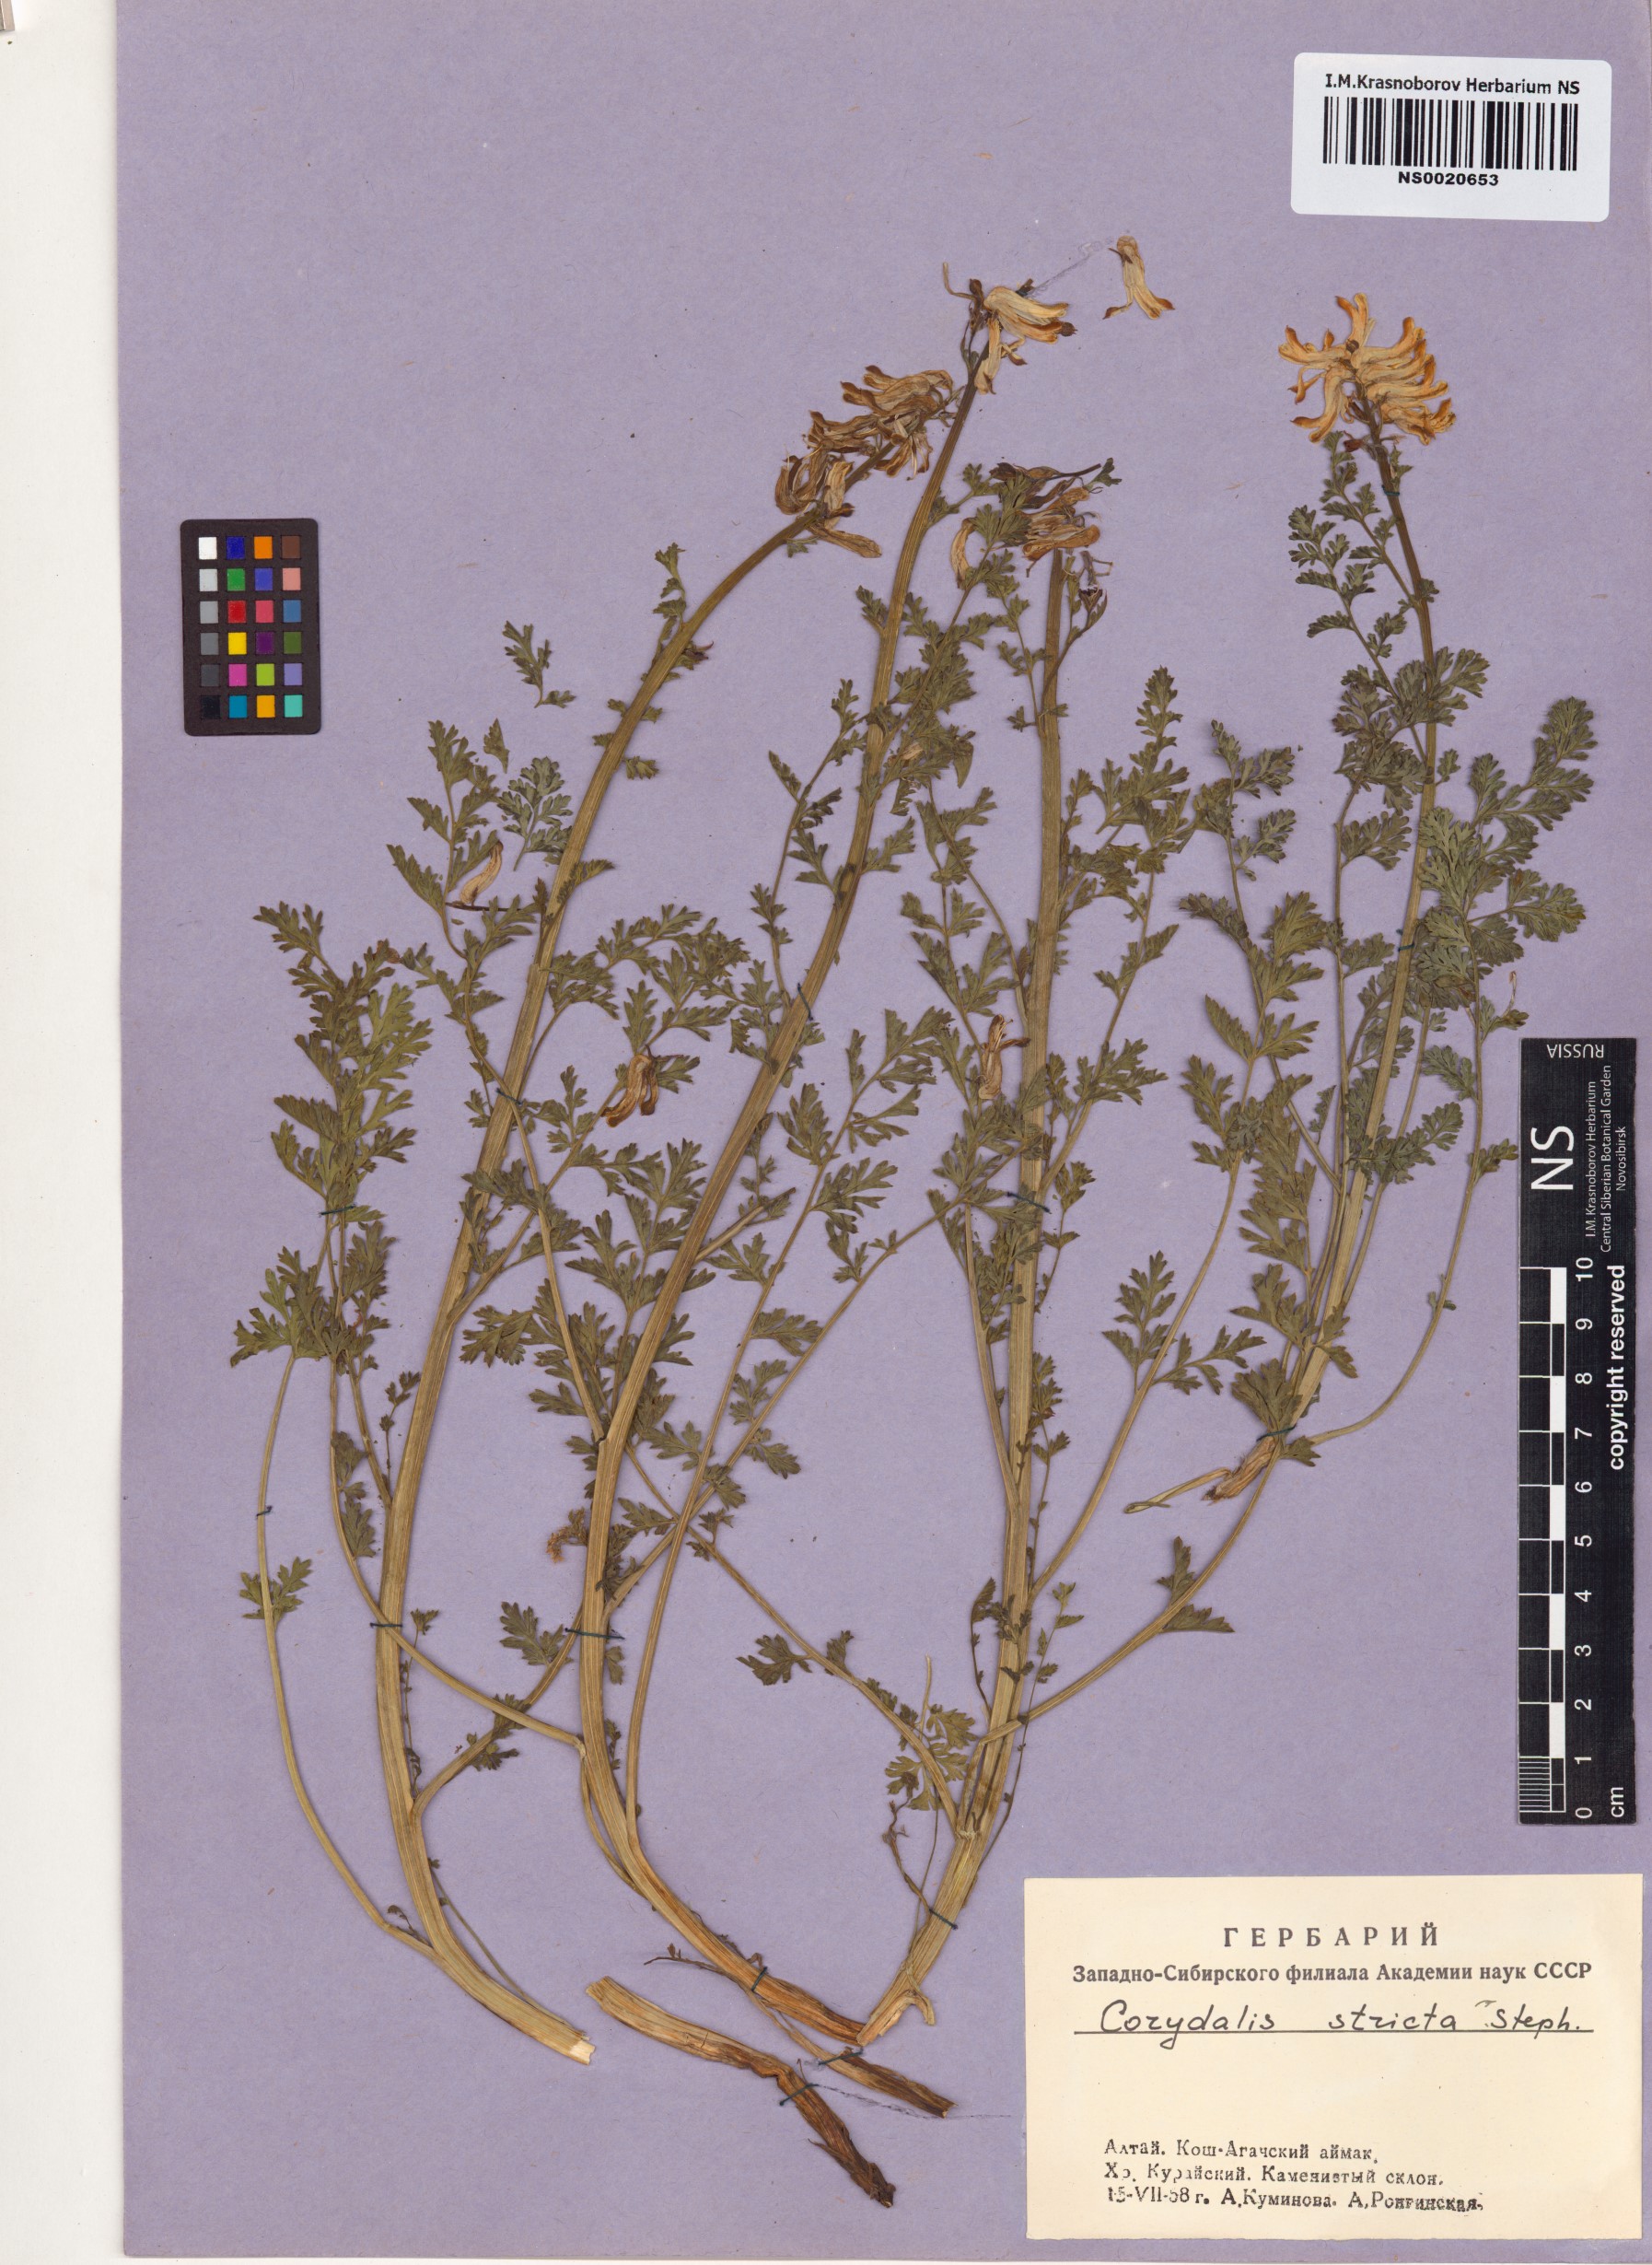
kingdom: Plantae
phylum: Tracheophyta
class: Magnoliopsida
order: Ranunculales
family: Papaveraceae
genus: Corydalis
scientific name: Corydalis stricta
